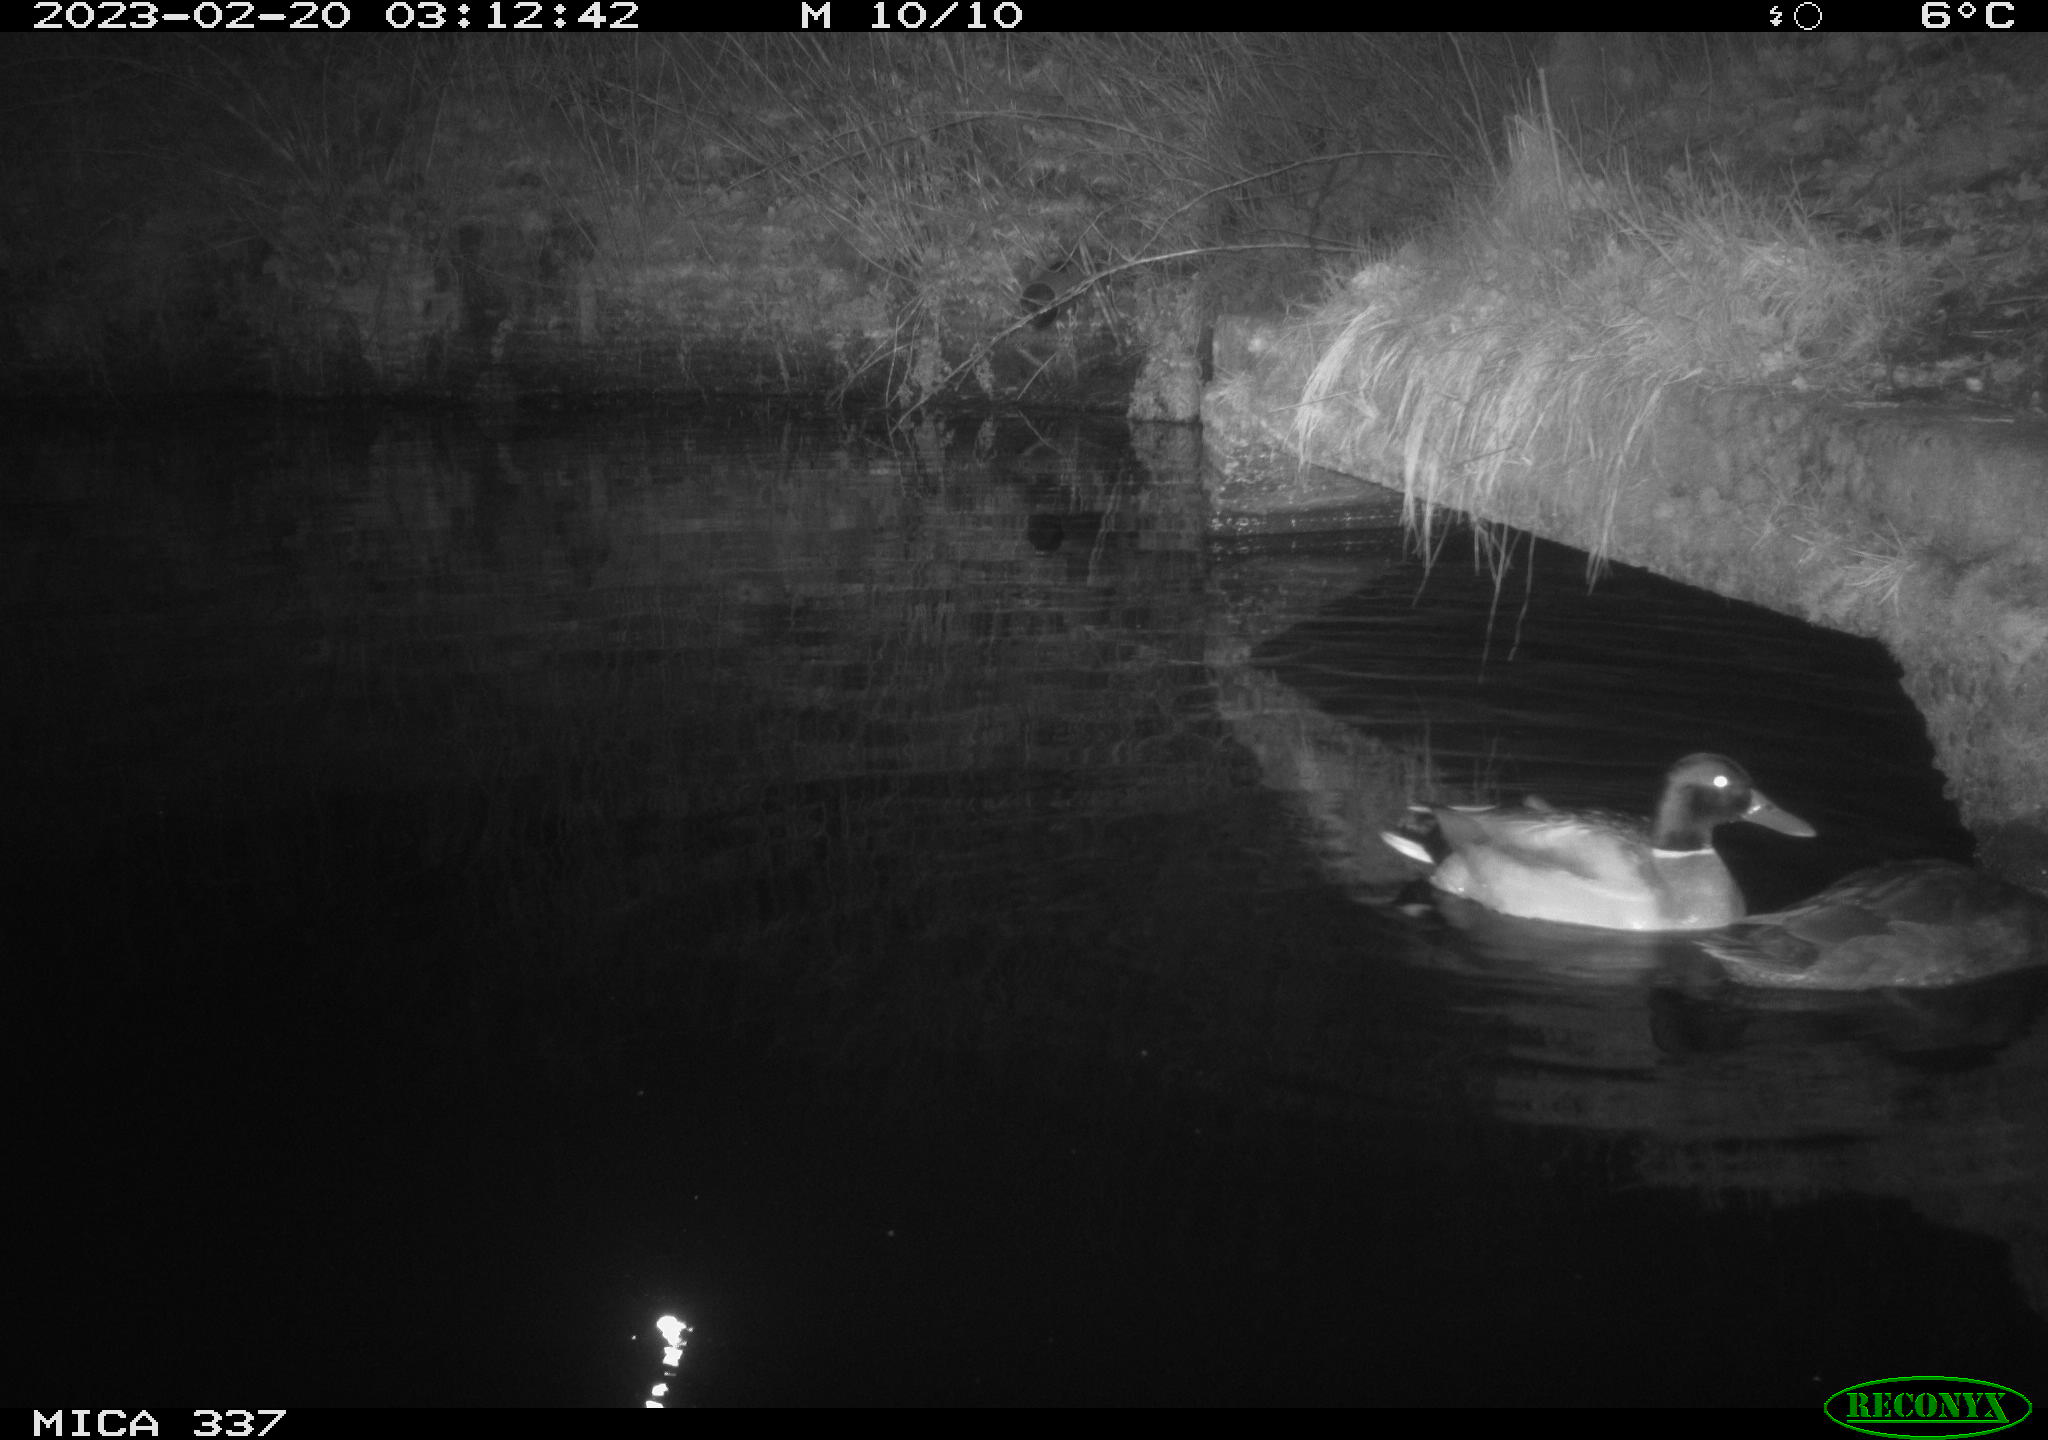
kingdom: Animalia
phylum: Chordata
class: Aves
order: Anseriformes
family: Anatidae
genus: Anas
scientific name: Anas
